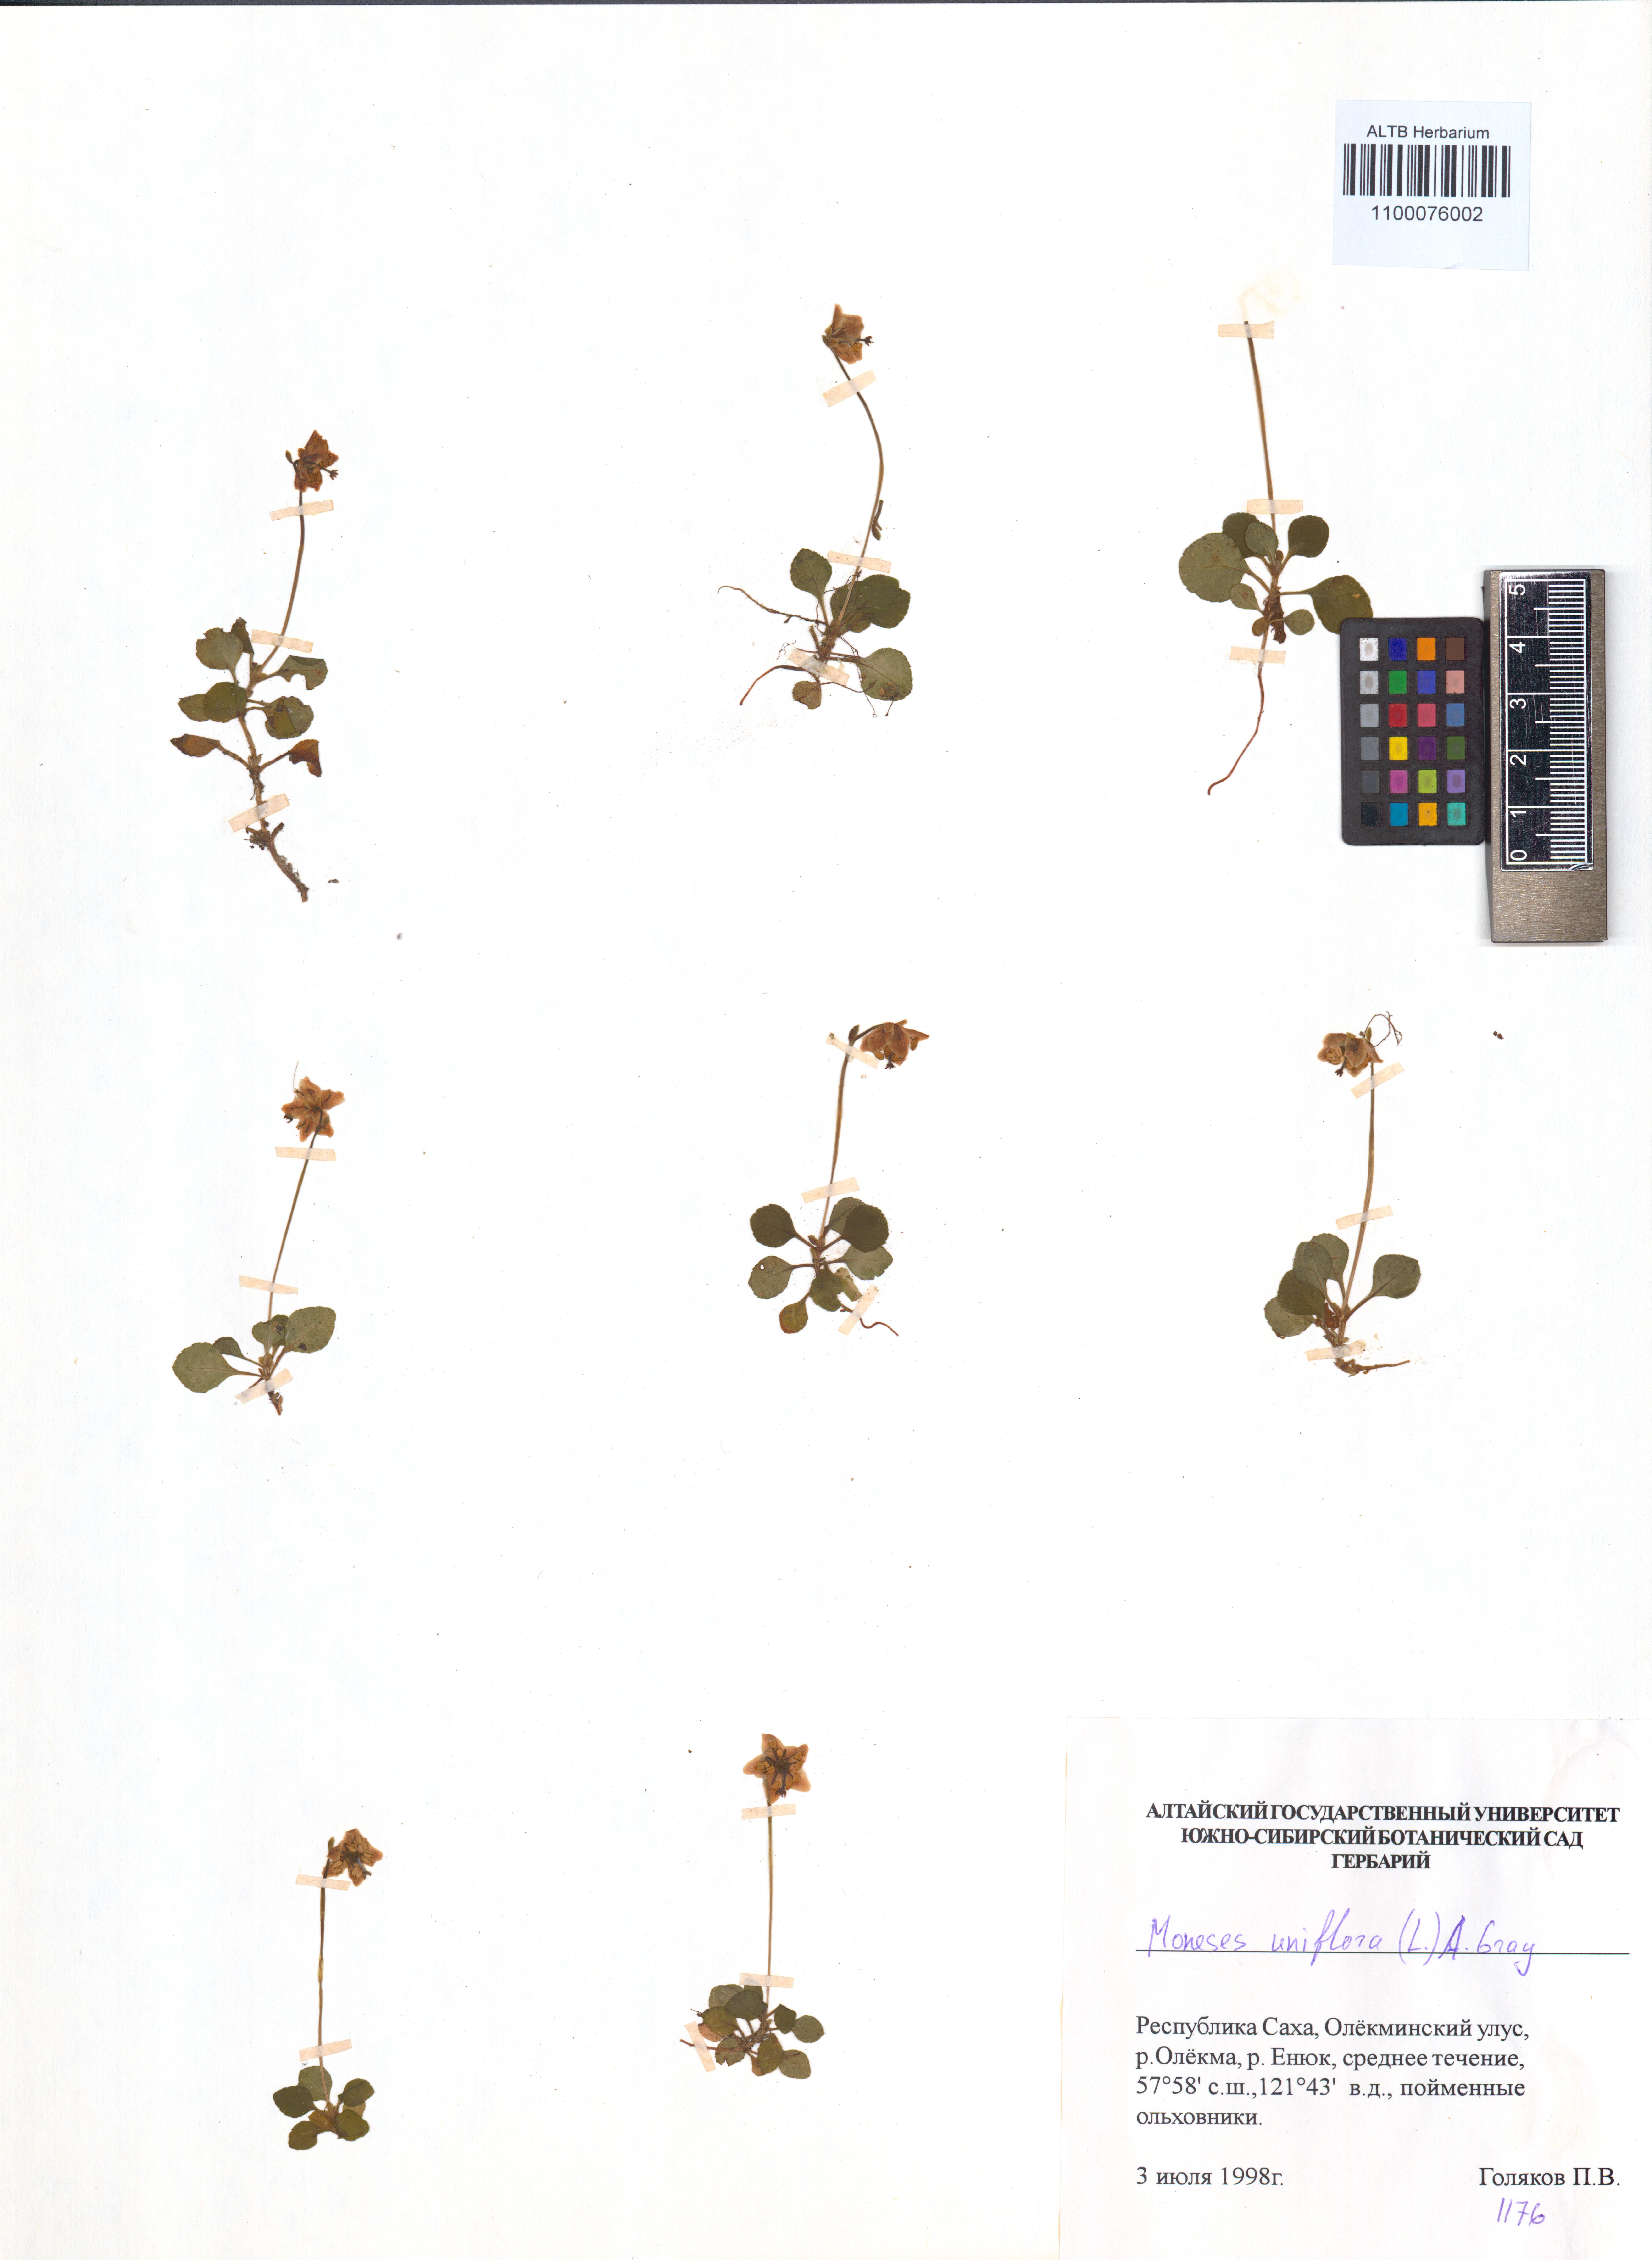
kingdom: Plantae
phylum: Tracheophyta
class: Magnoliopsida
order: Ericales
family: Ericaceae
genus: Moneses
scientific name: Moneses uniflora
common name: One-flowered wintergreen
